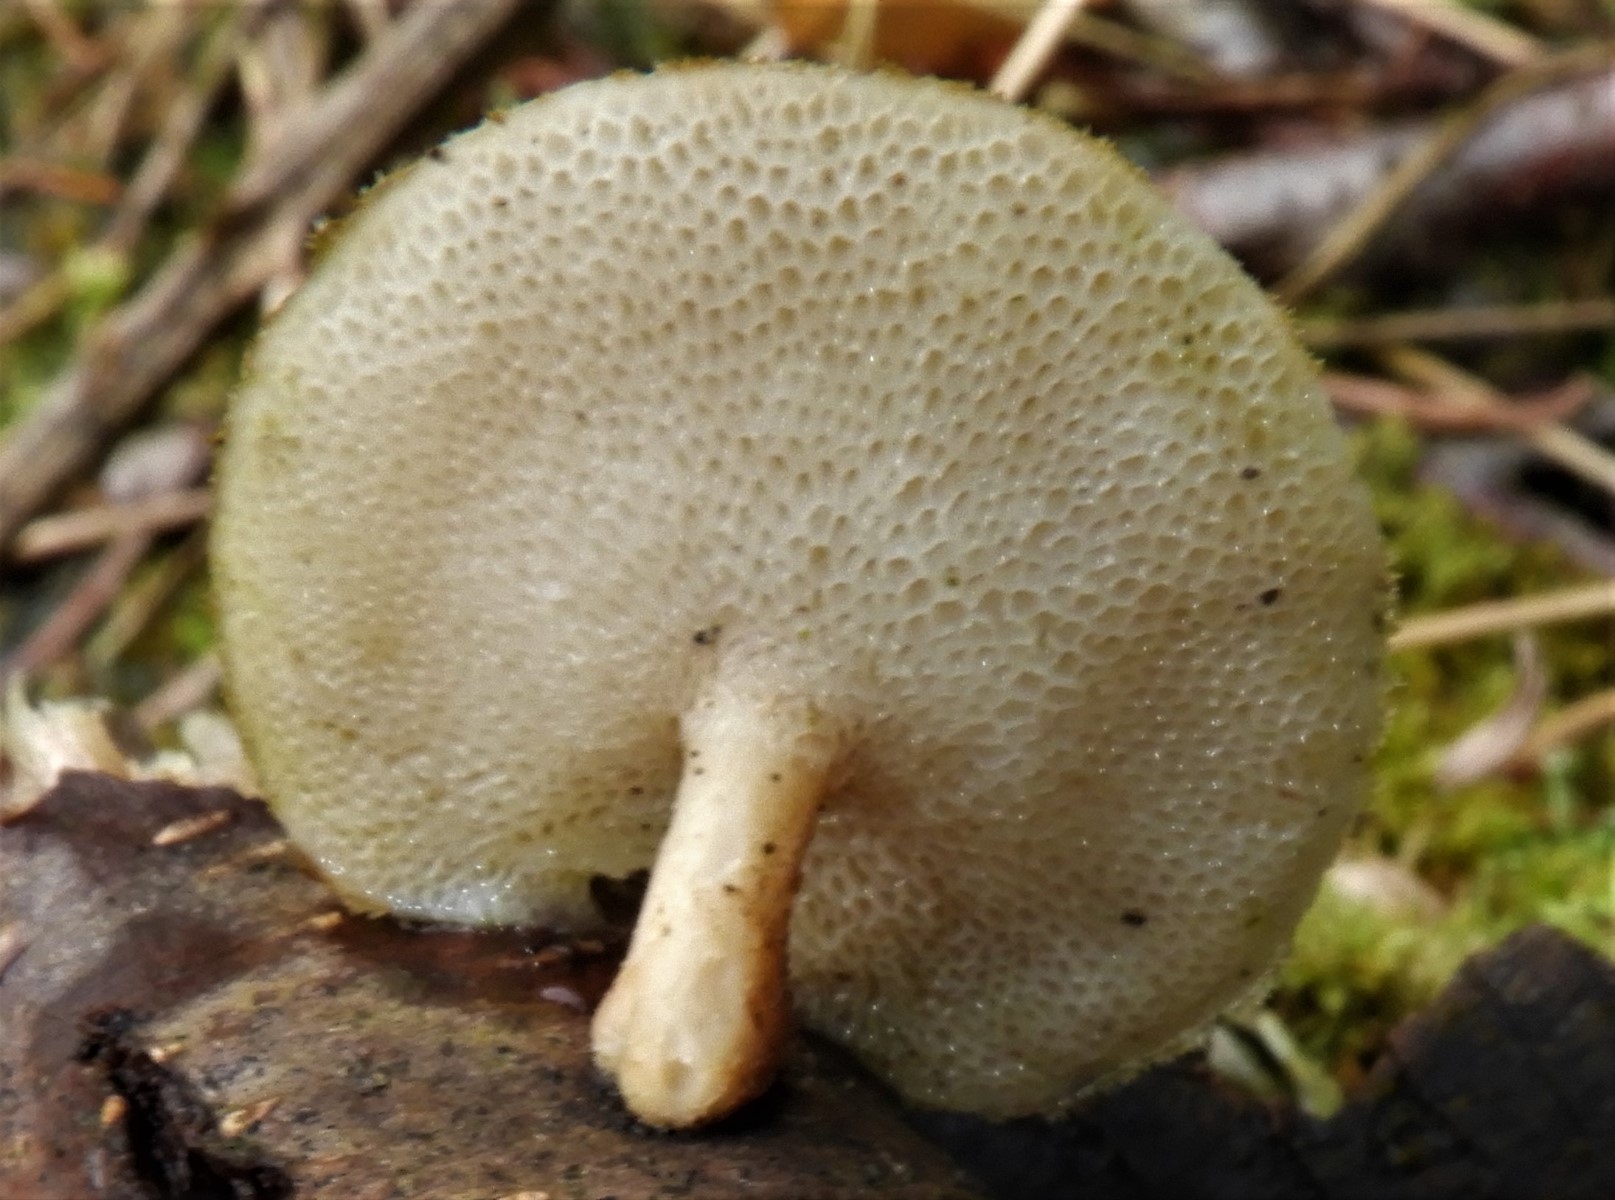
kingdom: Fungi
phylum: Basidiomycota
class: Agaricomycetes
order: Polyporales
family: Polyporaceae
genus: Lentinus
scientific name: Lentinus brumalis
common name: vinter-stilkporesvamp
